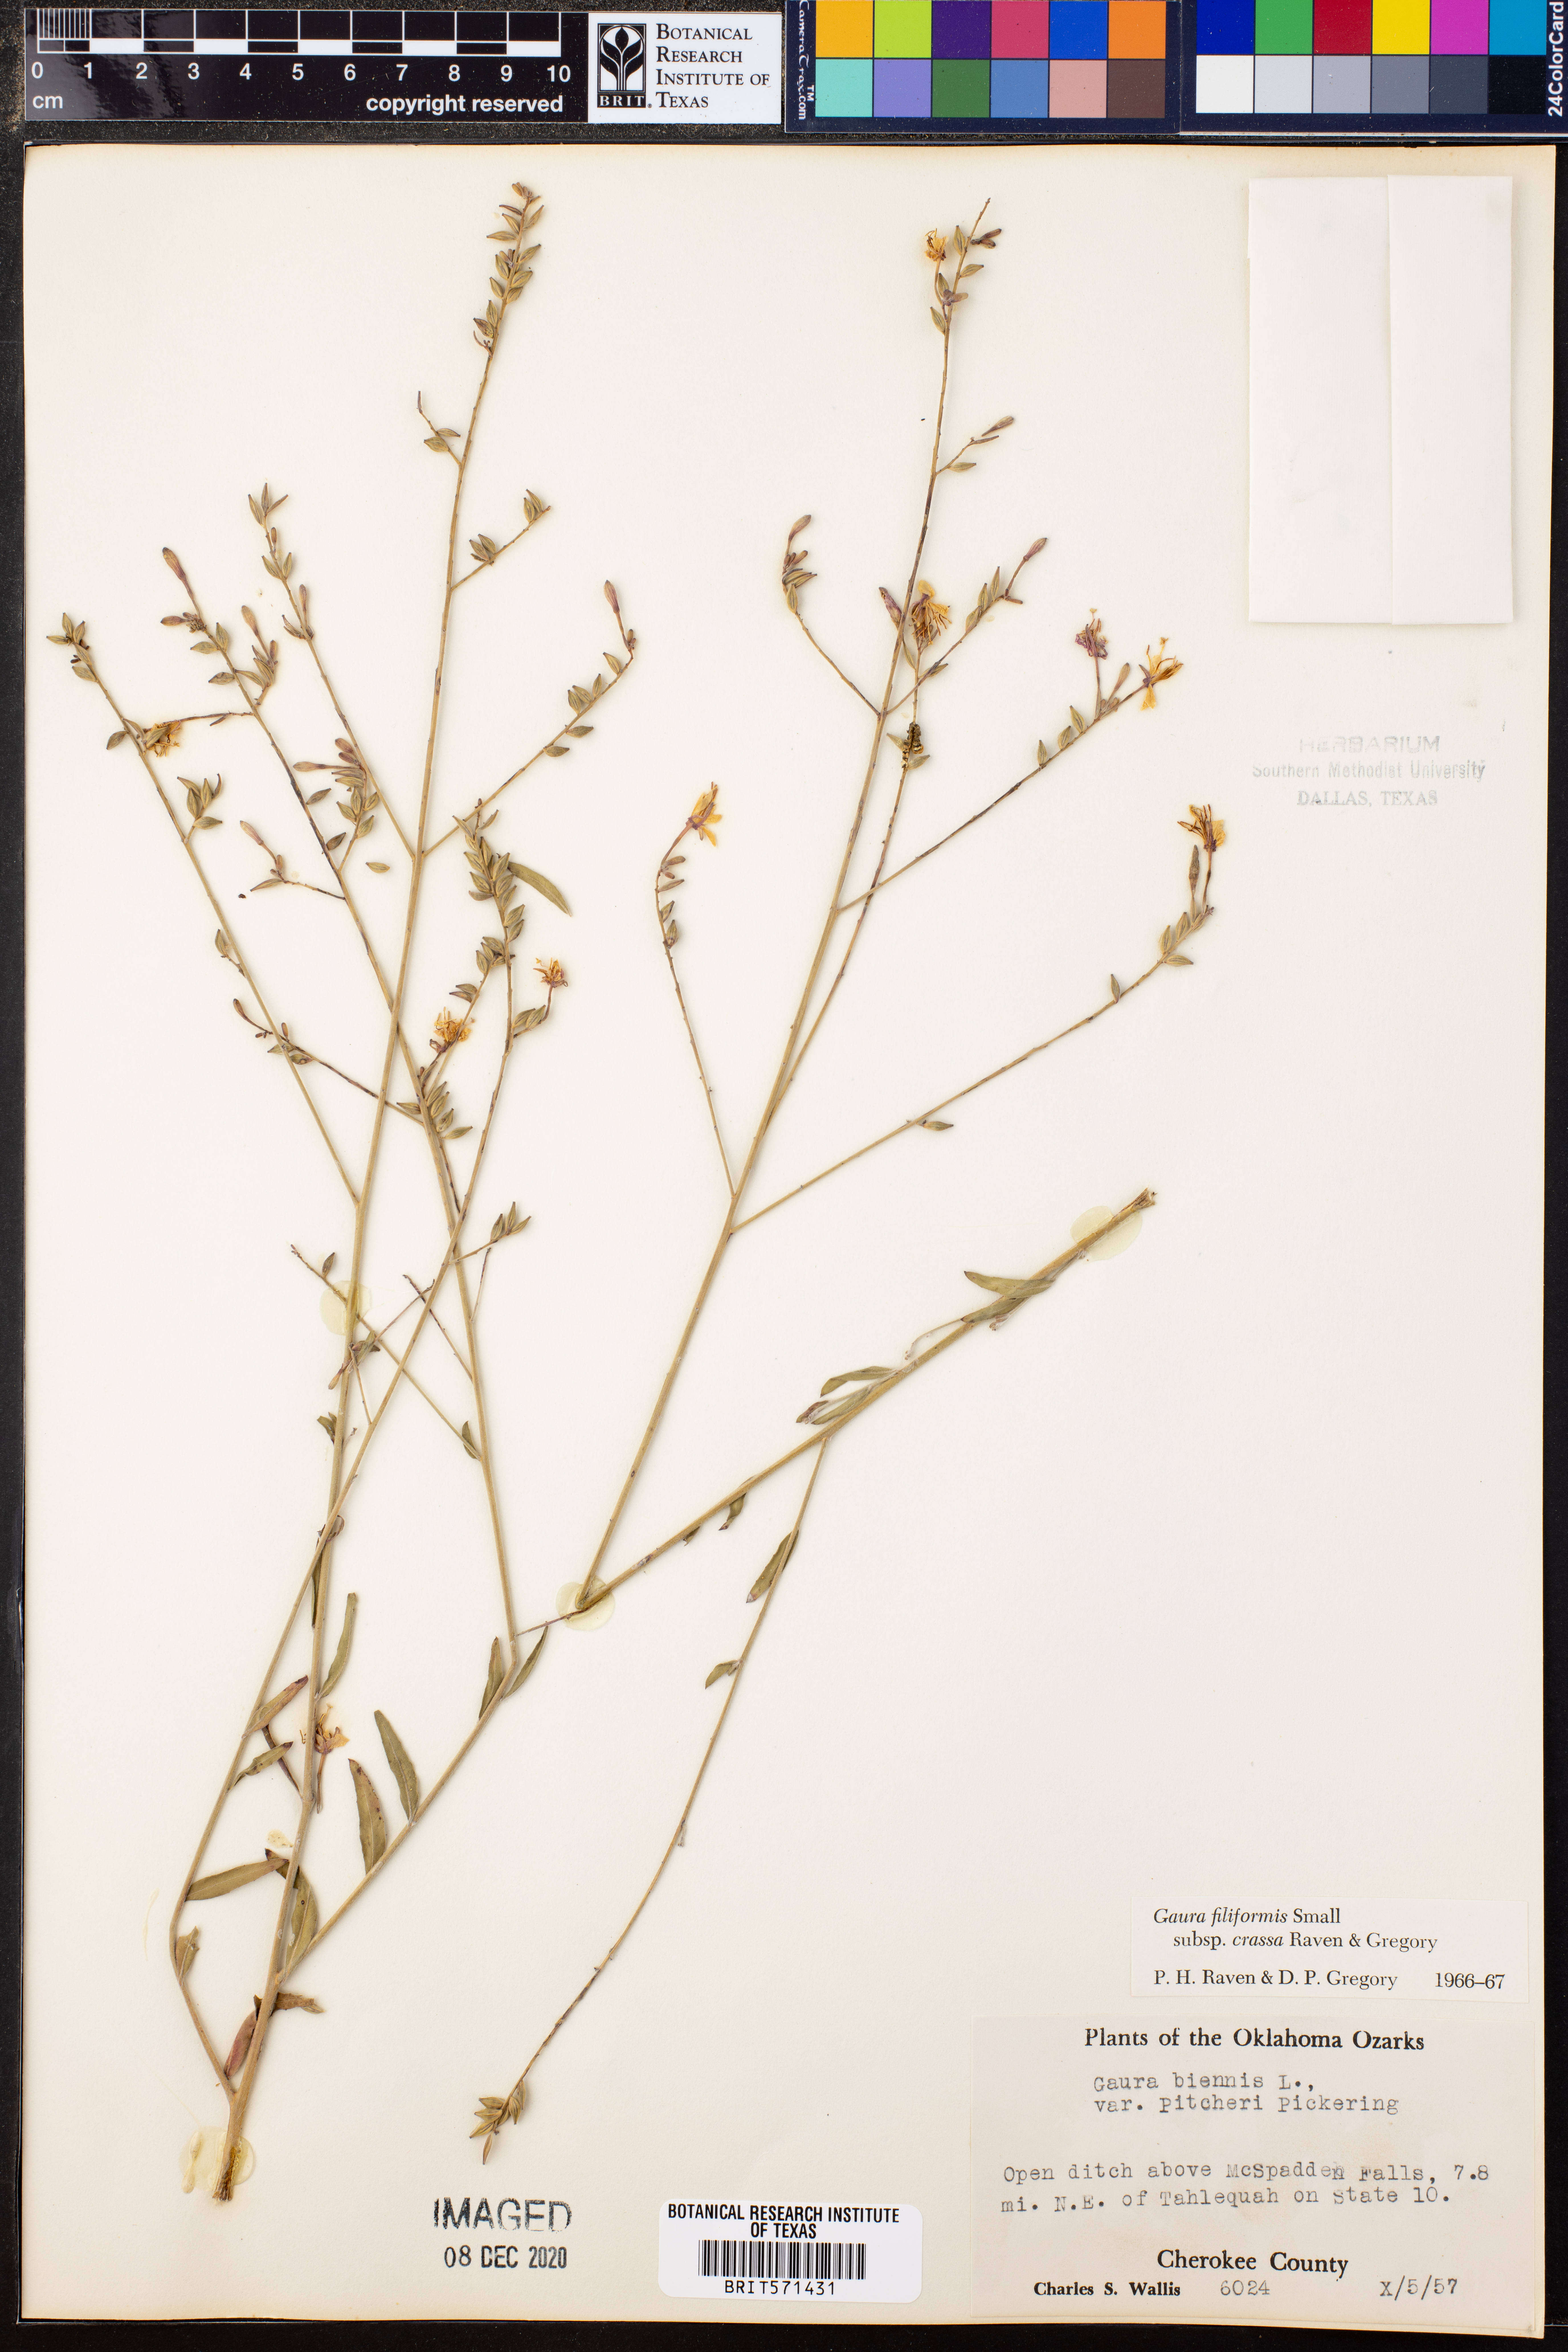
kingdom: Plantae
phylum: Tracheophyta
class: Magnoliopsida
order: Myrtales
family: Onagraceae
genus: Oenothera
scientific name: Oenothera filiformis
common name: Longflower beeblossom
